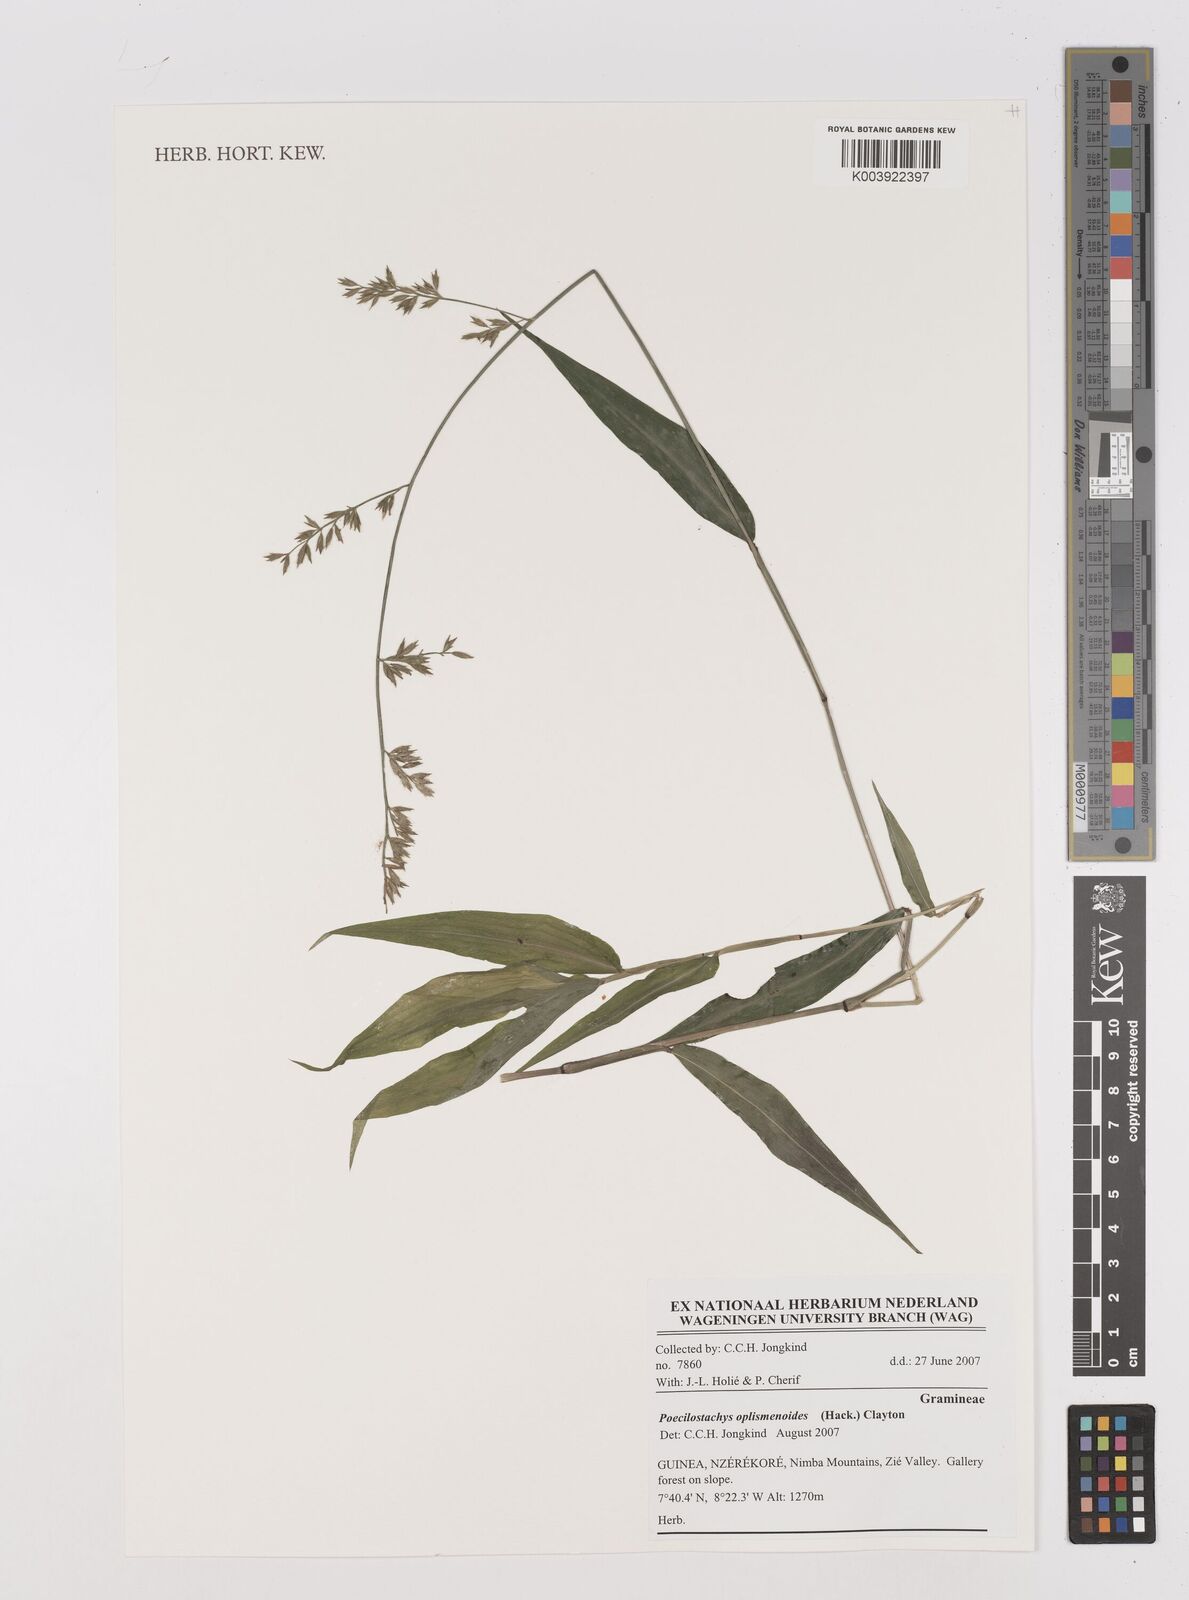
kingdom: Plantae
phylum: Tracheophyta
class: Liliopsida
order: Poales
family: Poaceae
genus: Poecilostachys
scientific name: Poecilostachys oplismenoides
